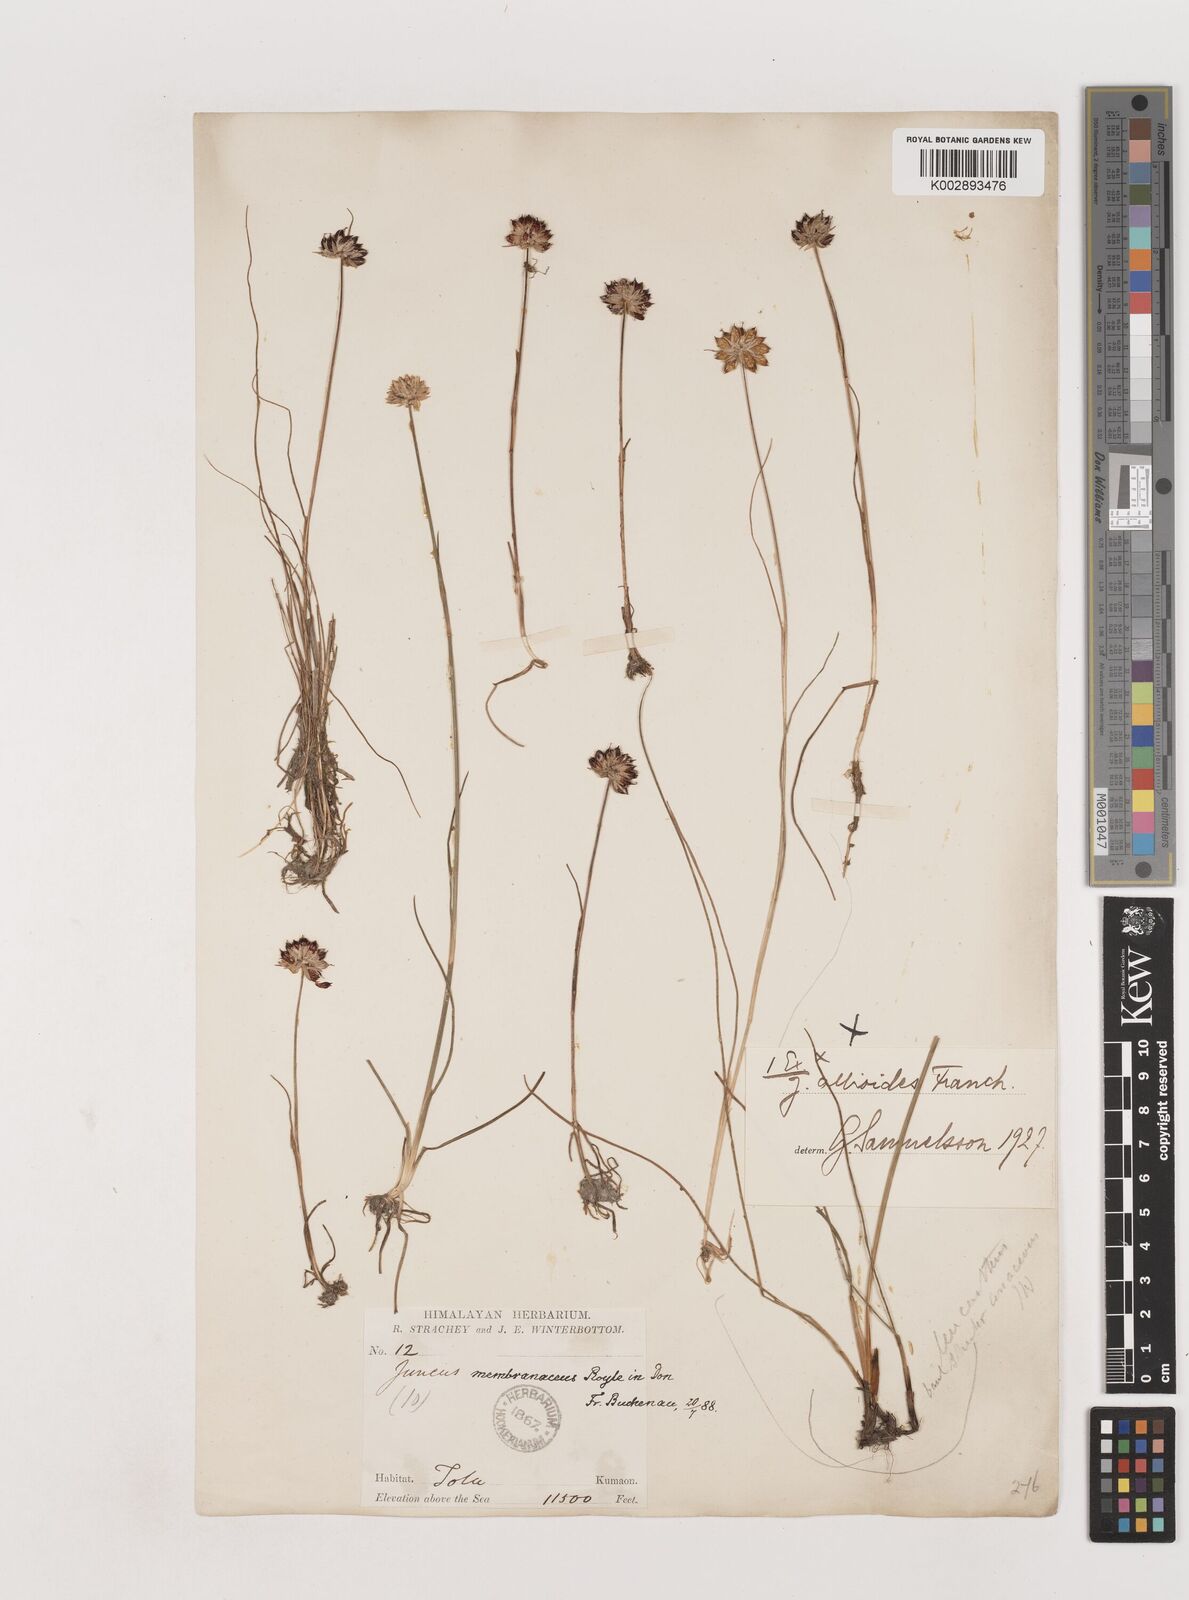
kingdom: Plantae
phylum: Tracheophyta
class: Liliopsida
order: Poales
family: Juncaceae
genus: Juncus
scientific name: Juncus membranaceus
